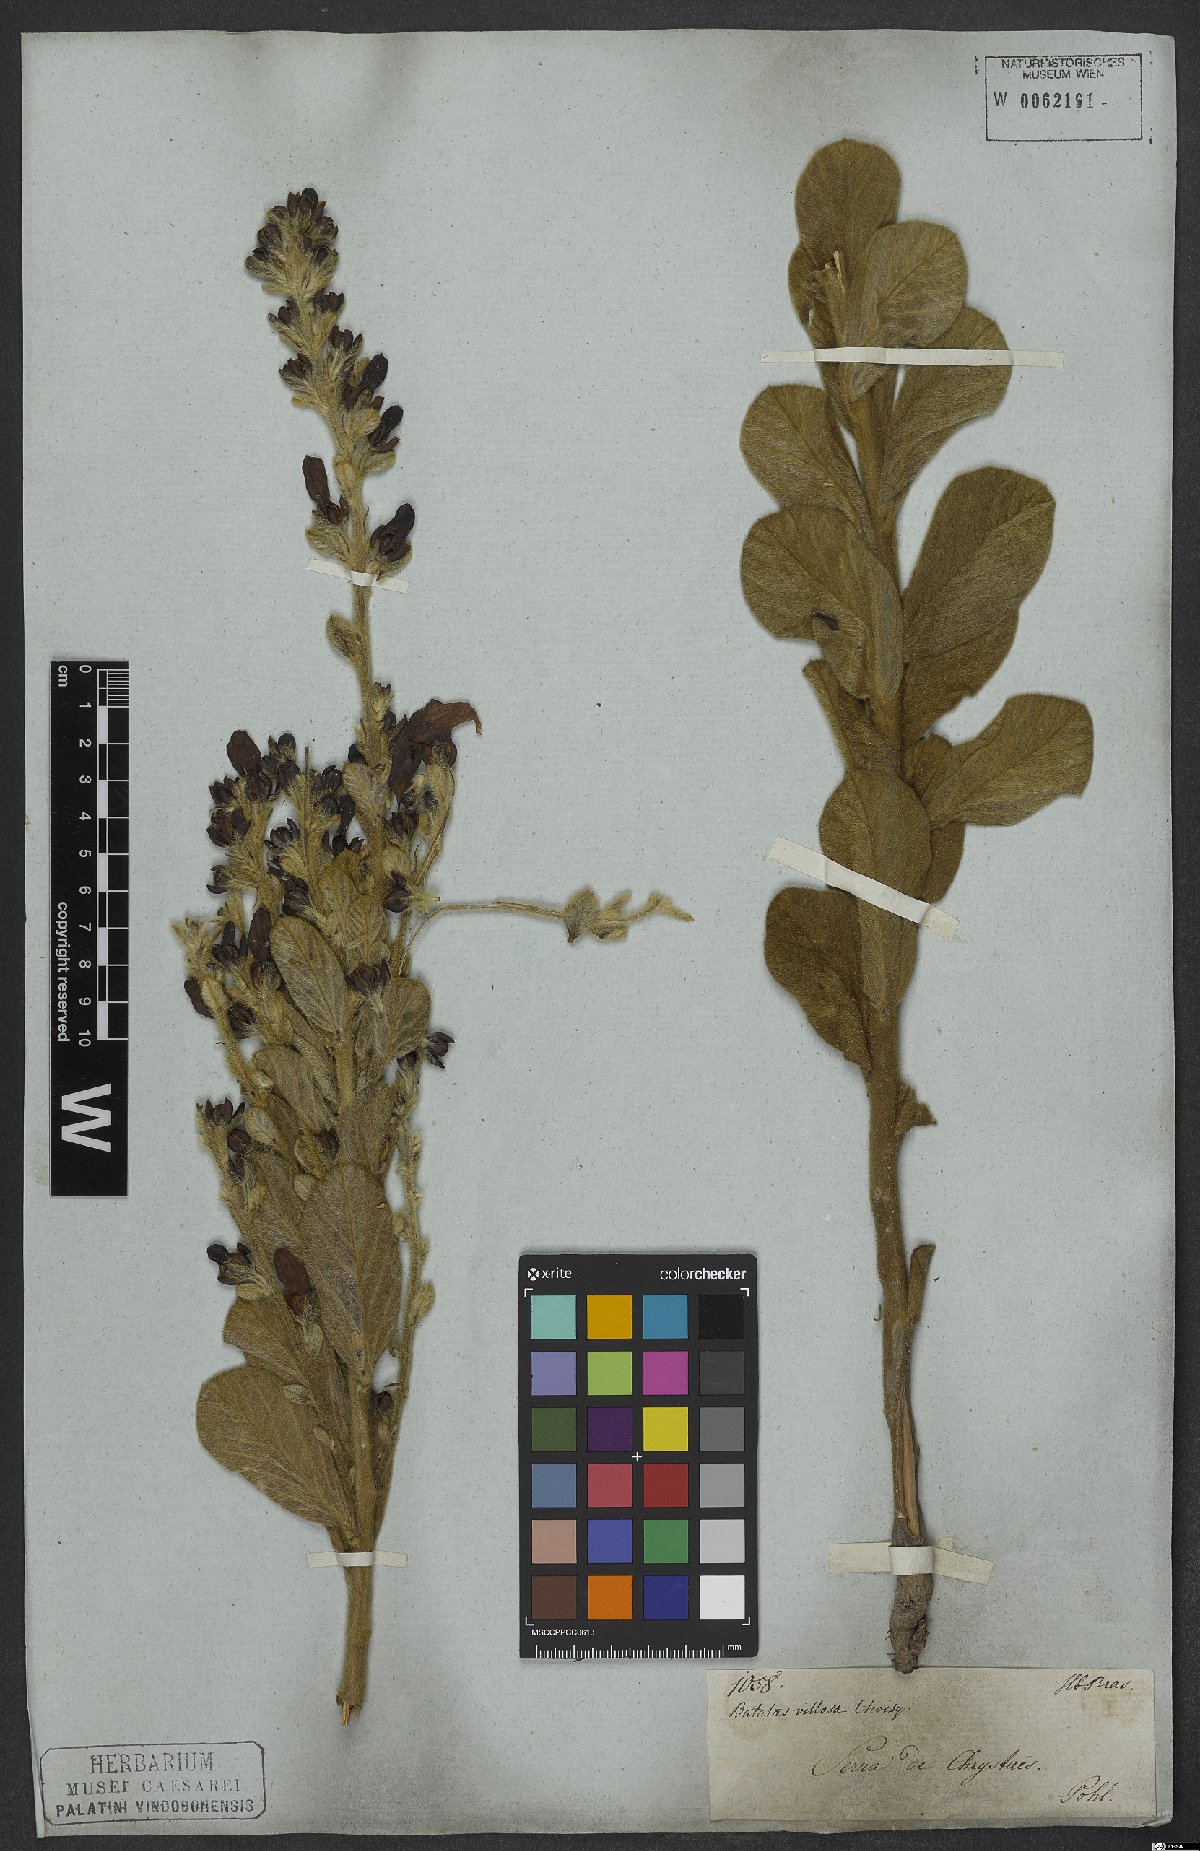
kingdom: Plantae
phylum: Tracheophyta
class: Magnoliopsida
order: Solanales
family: Convolvulaceae
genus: Ipomoea
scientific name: Ipomoea argentea
